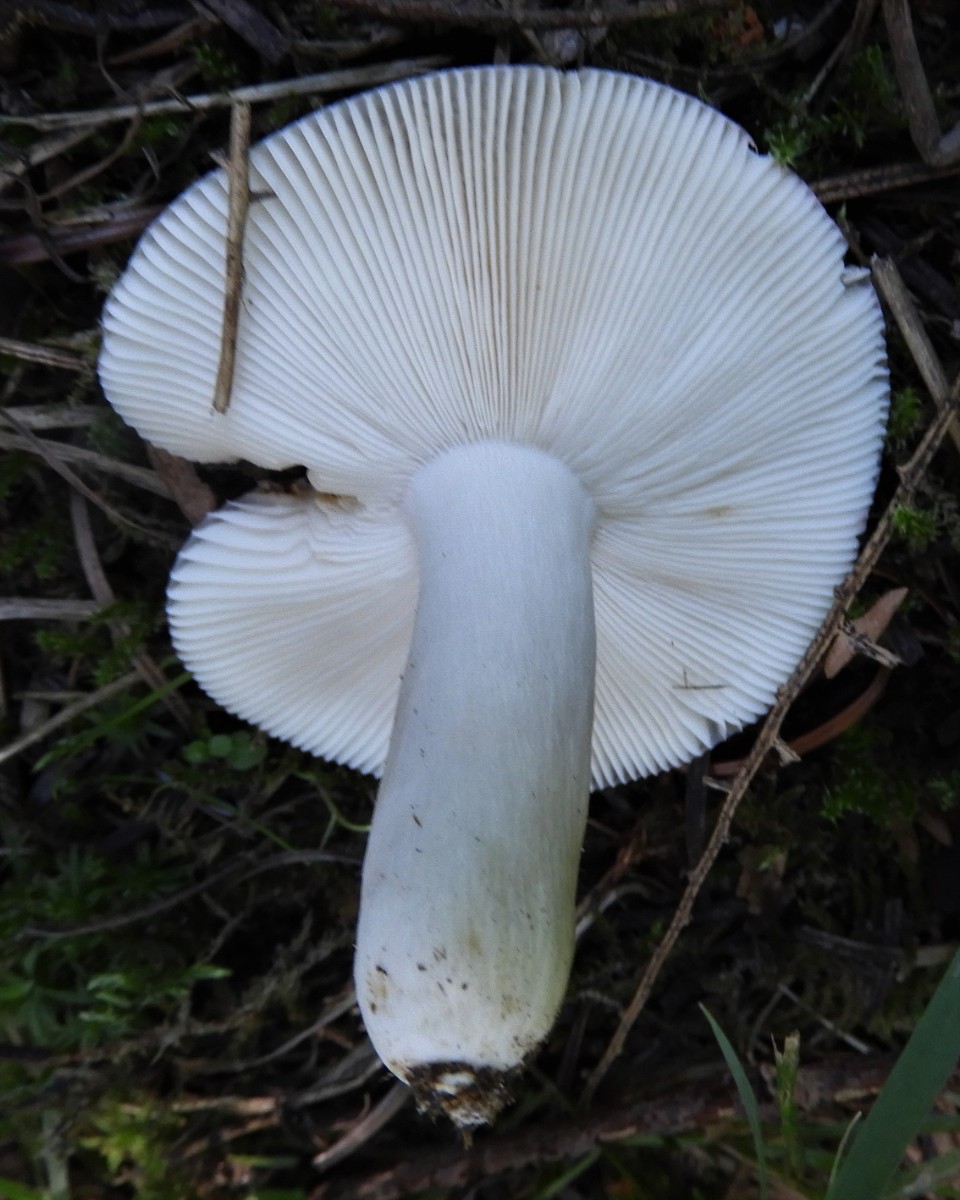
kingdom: Fungi
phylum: Basidiomycota
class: Agaricomycetes
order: Russulales
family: Russulaceae
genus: Russula
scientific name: Russula
